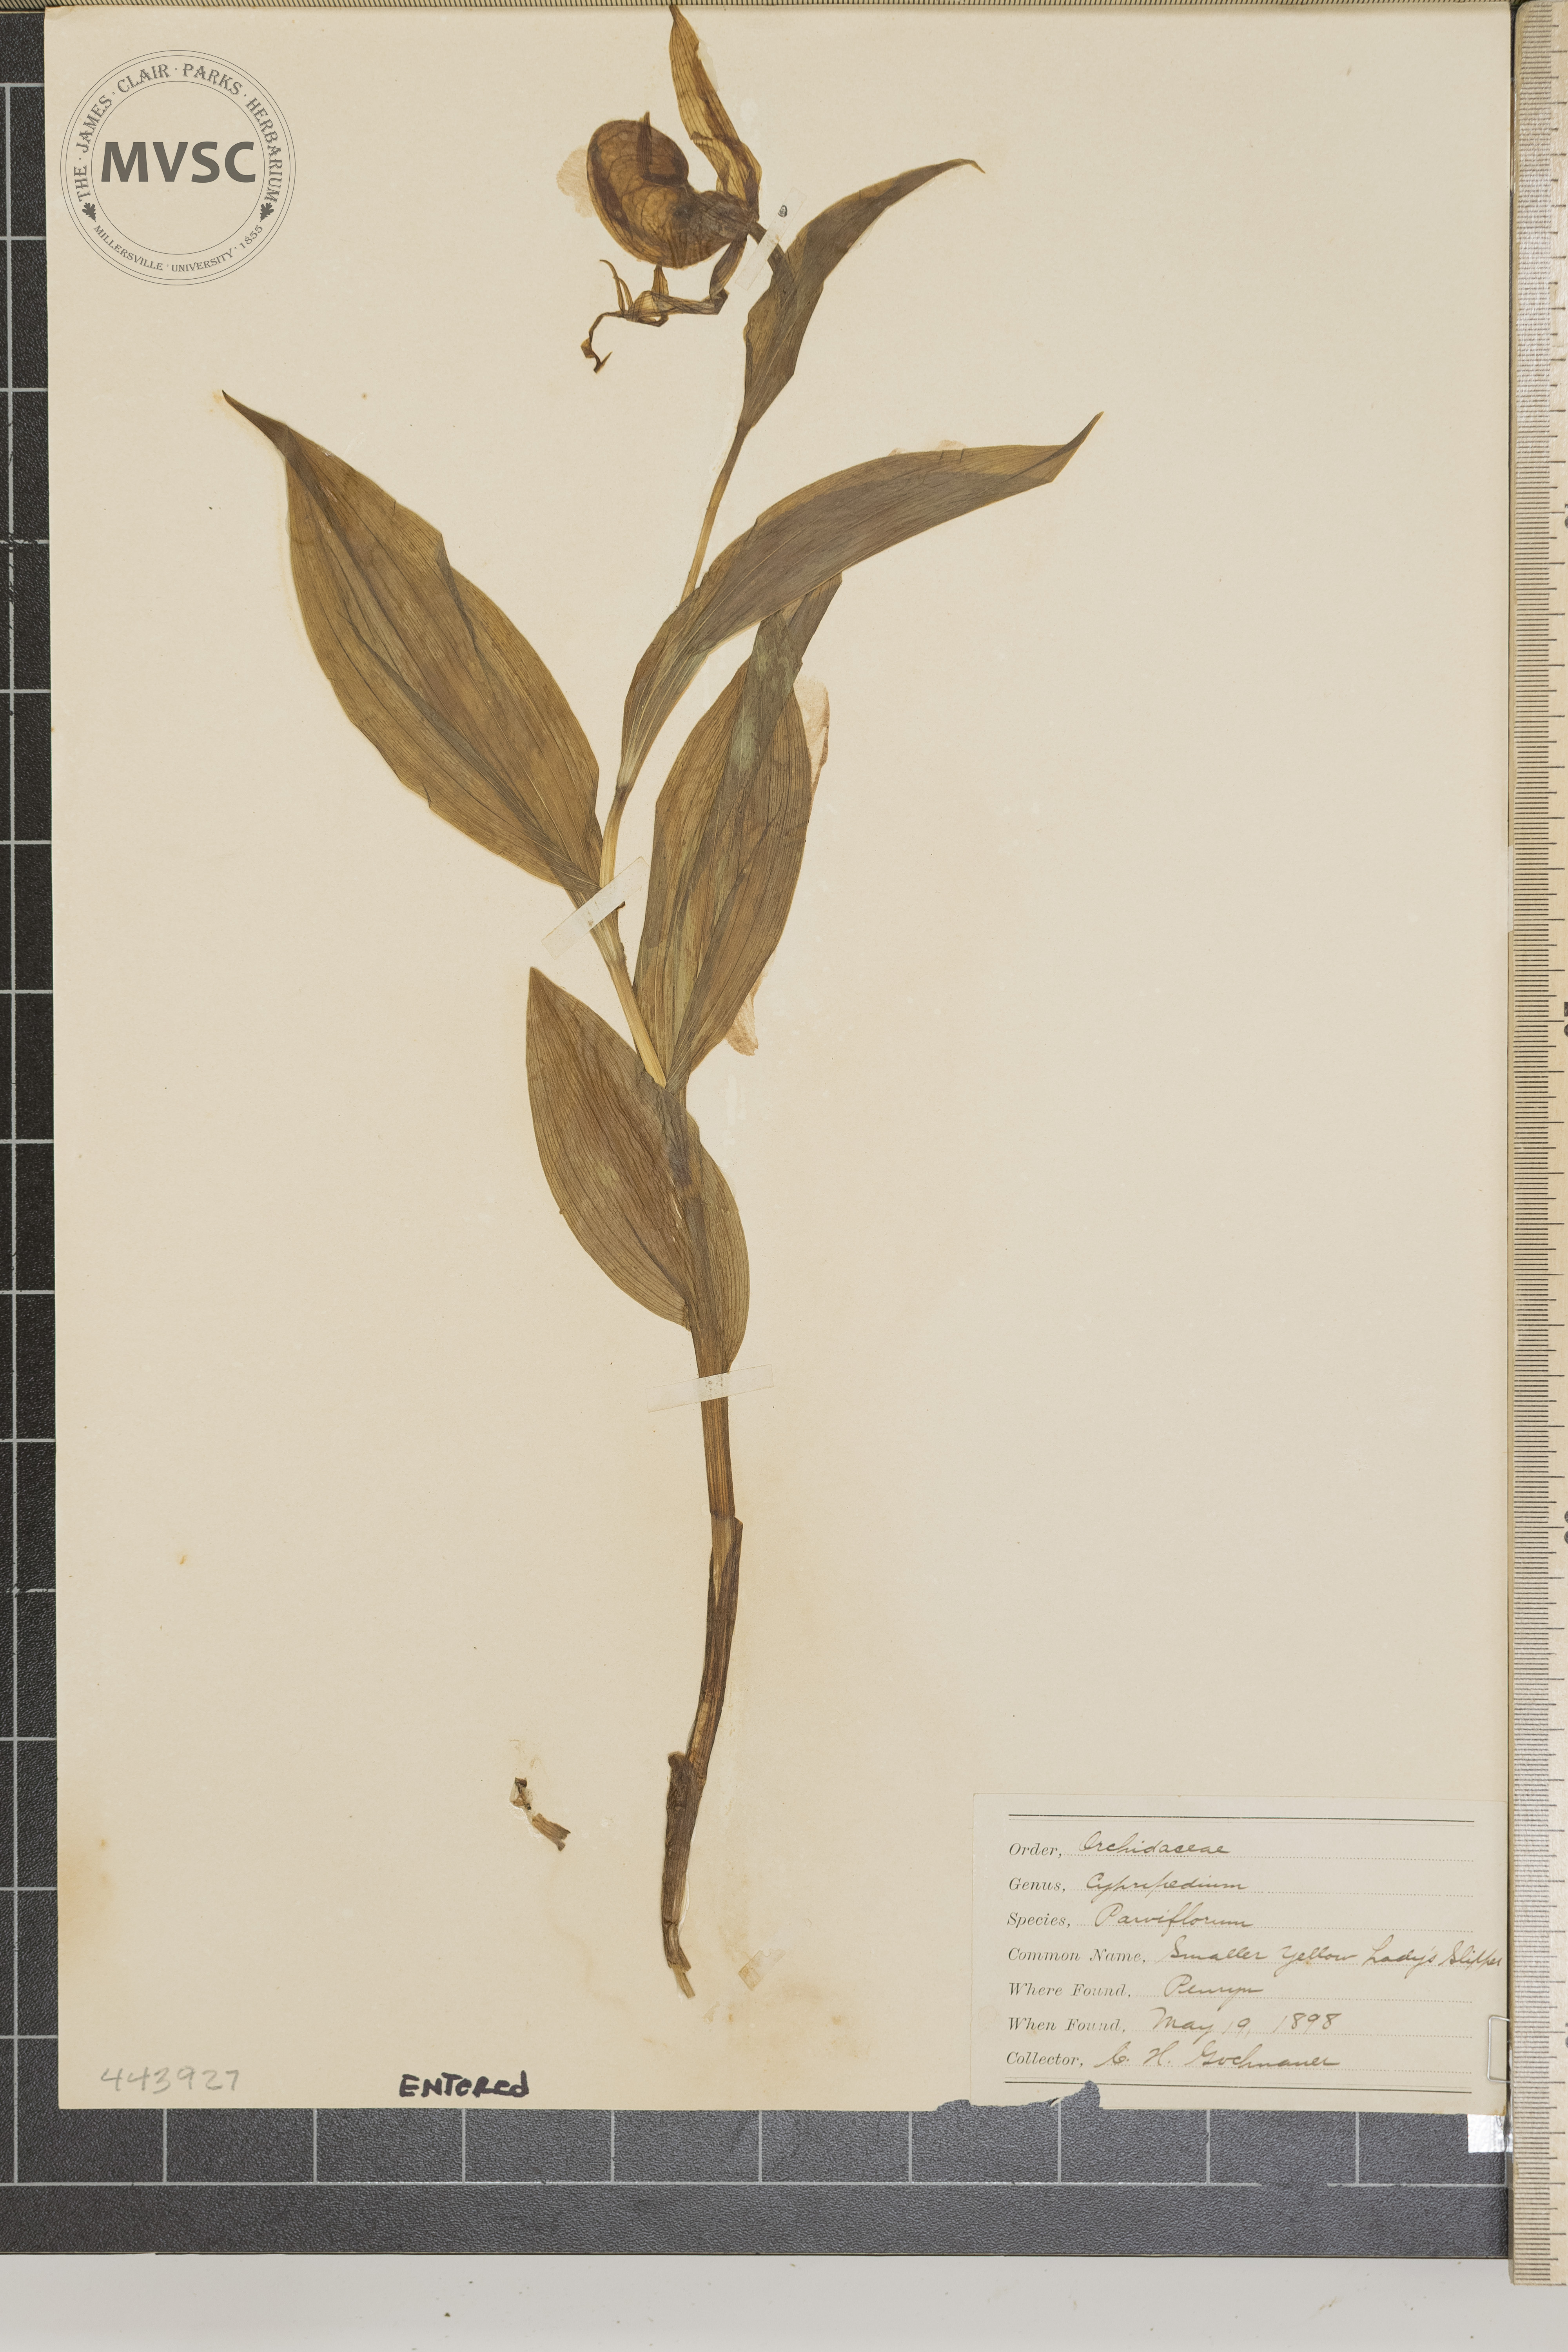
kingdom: Plantae
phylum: Tracheophyta
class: Liliopsida
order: Asparagales
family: Orchidaceae
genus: Cypripedium
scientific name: Cypripedium parviflorum
